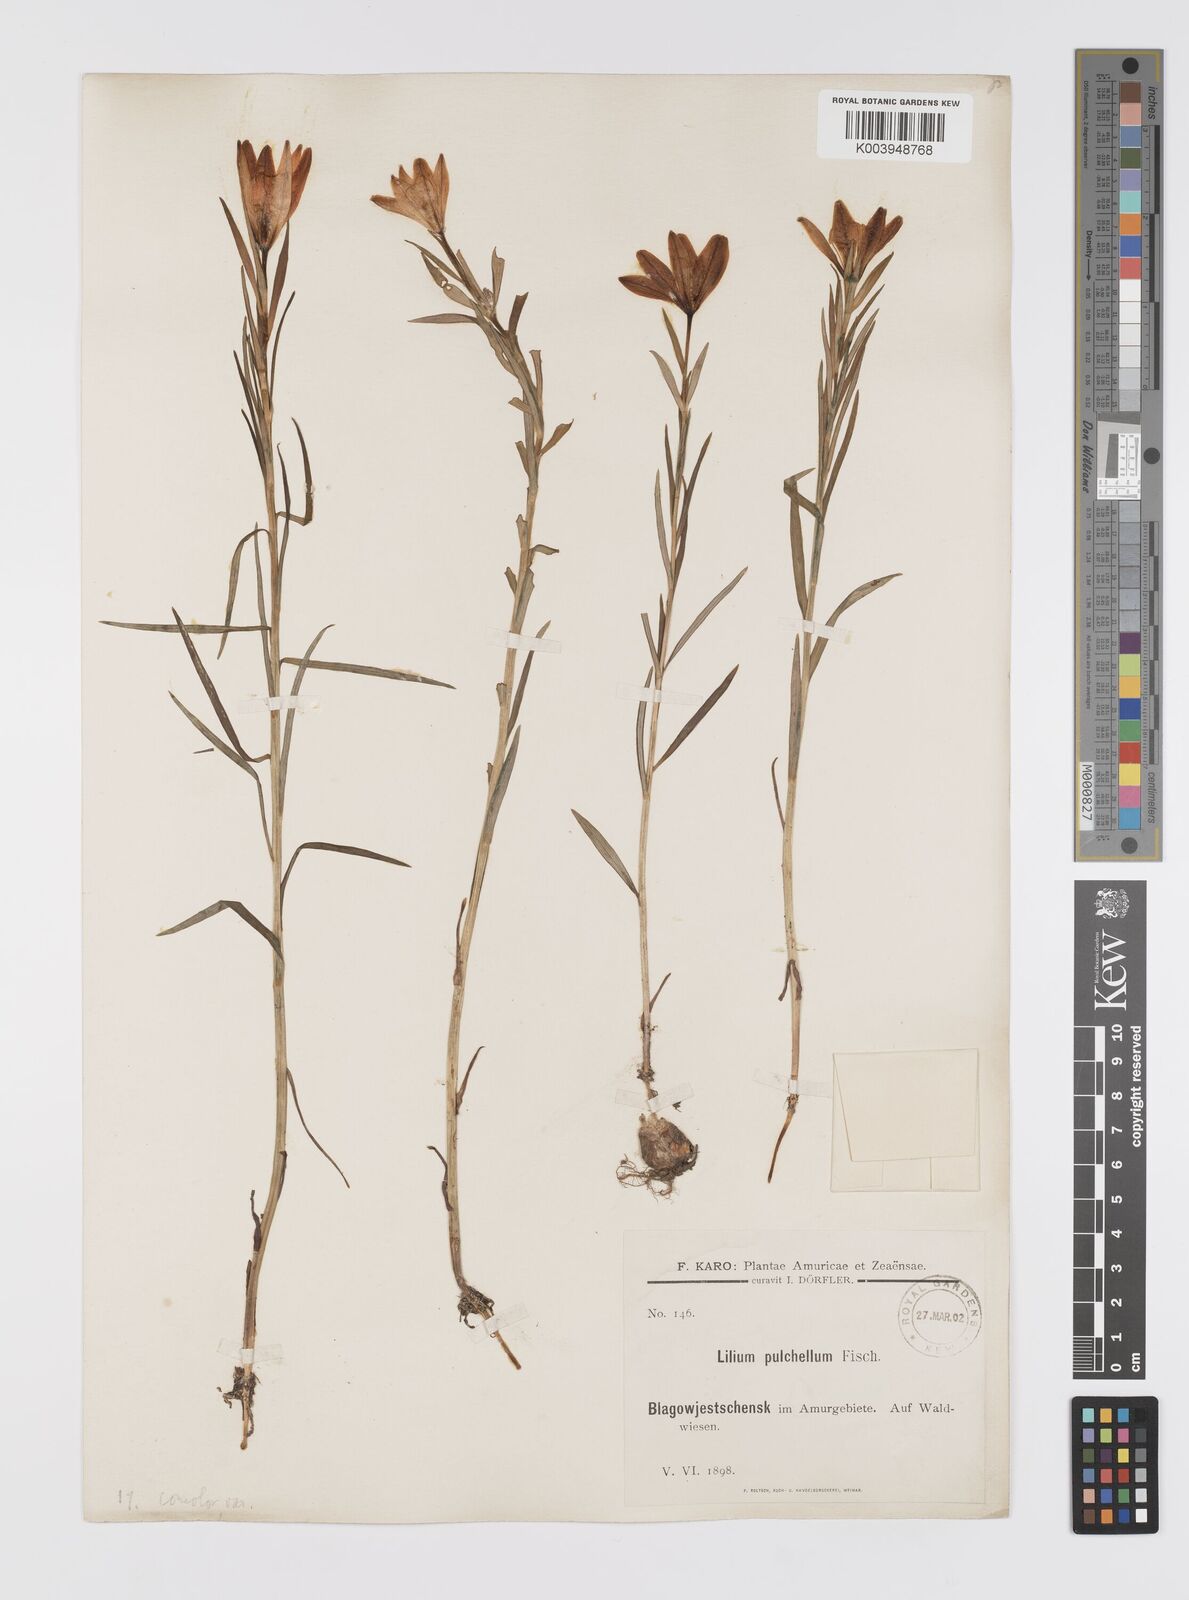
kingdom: Plantae
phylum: Tracheophyta
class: Liliopsida
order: Liliales
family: Liliaceae
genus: Lilium
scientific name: Lilium concolor
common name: Morning-star lily
